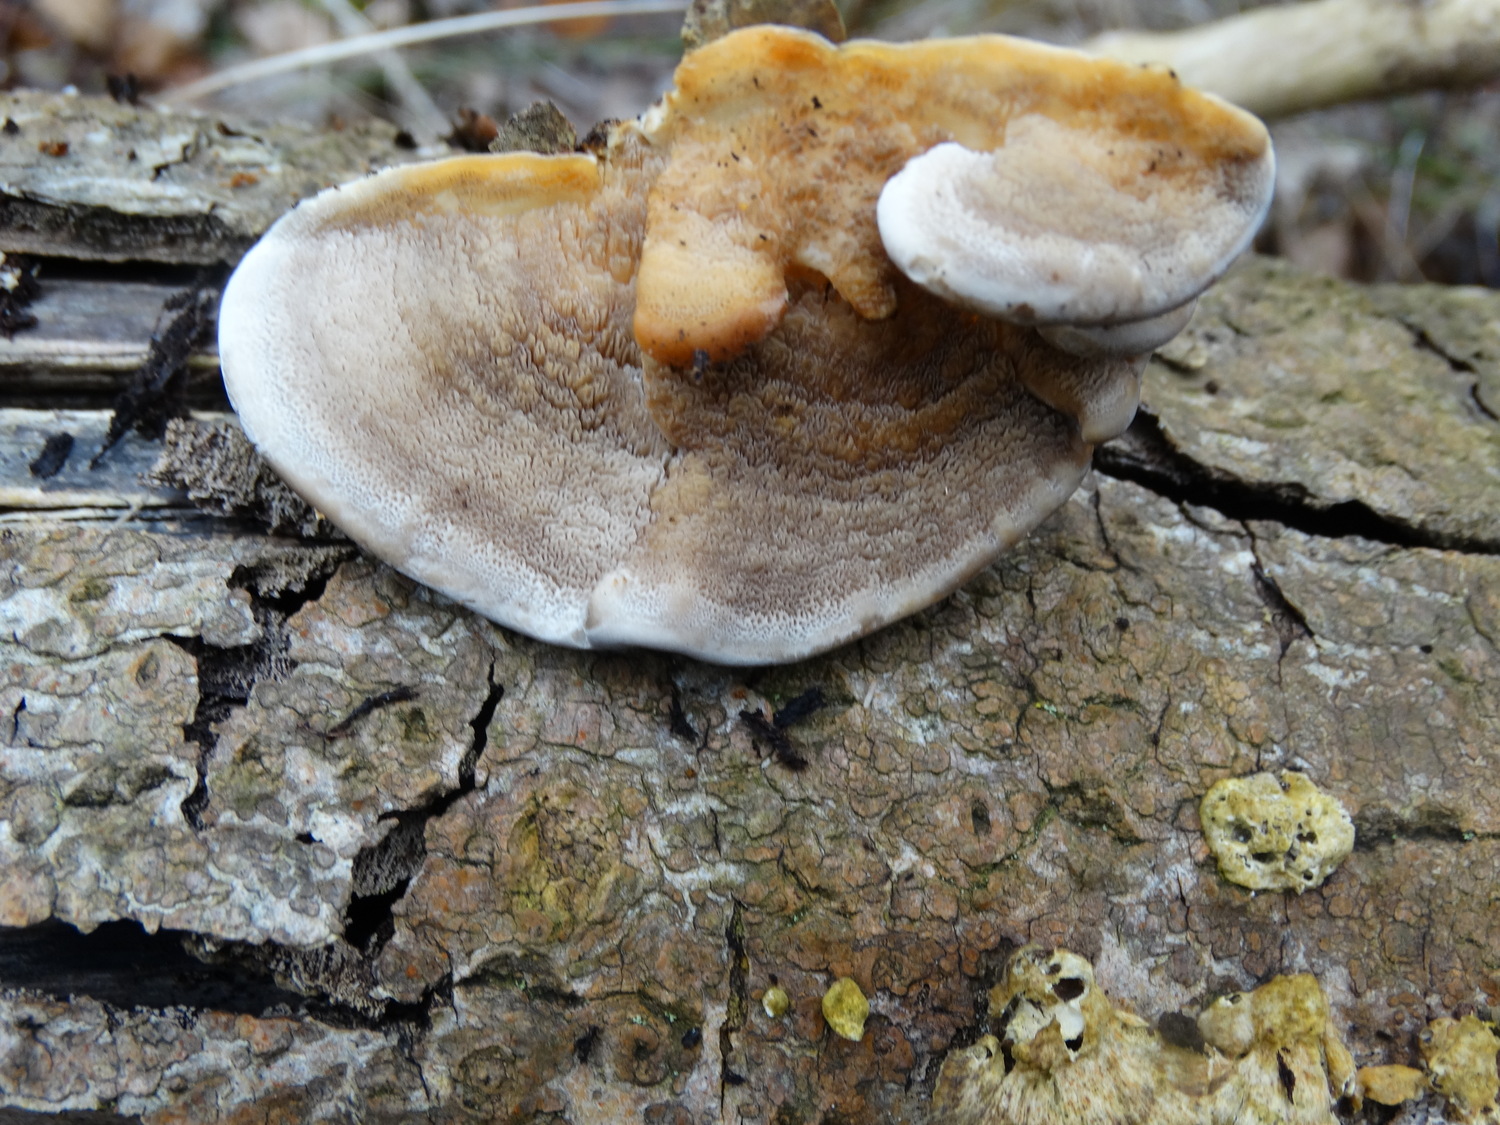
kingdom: Fungi
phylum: Basidiomycota
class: Agaricomycetes
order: Polyporales
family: Phanerochaetaceae
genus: Bjerkandera
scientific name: Bjerkandera fumosa
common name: grågul sodporesvamp
